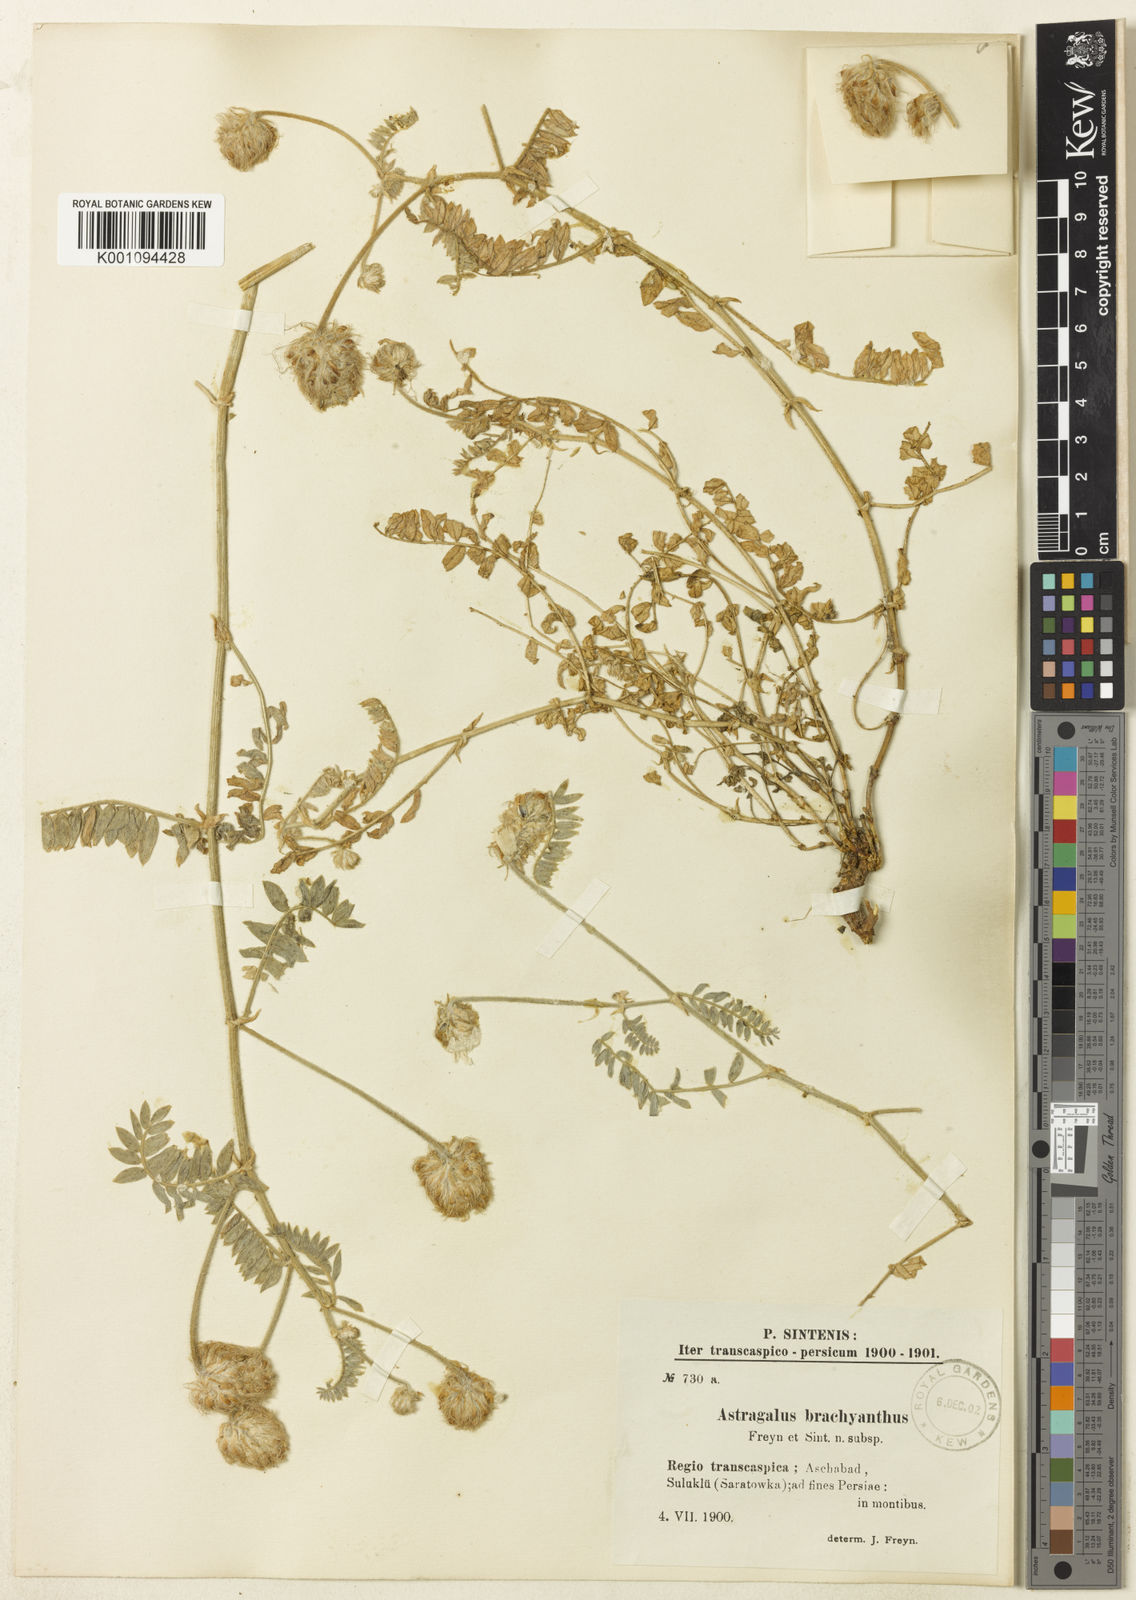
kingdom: Plantae
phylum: Tracheophyta
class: Magnoliopsida
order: Fabales
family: Fabaceae
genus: Astragalus
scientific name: Astragalus
